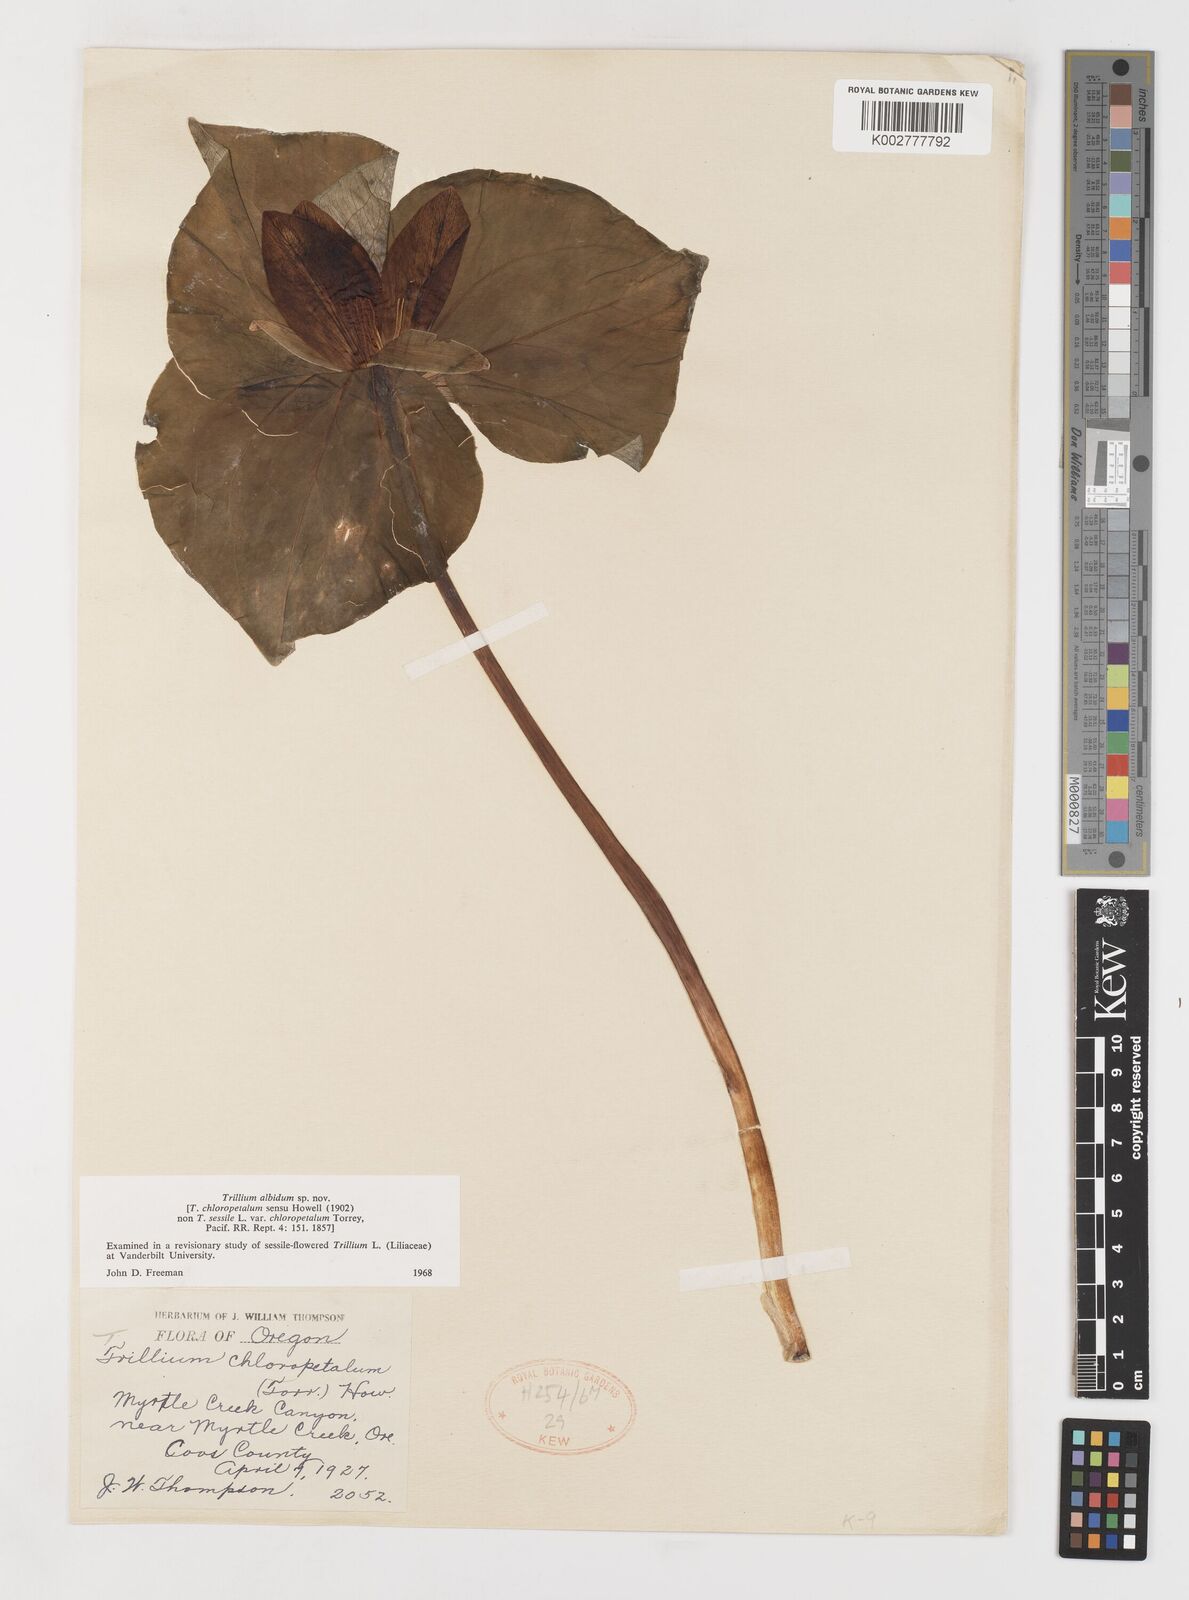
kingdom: Plantae
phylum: Tracheophyta
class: Liliopsida
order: Liliales
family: Melanthiaceae
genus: Trillium
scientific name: Trillium albidum
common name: Freeman's trillium
